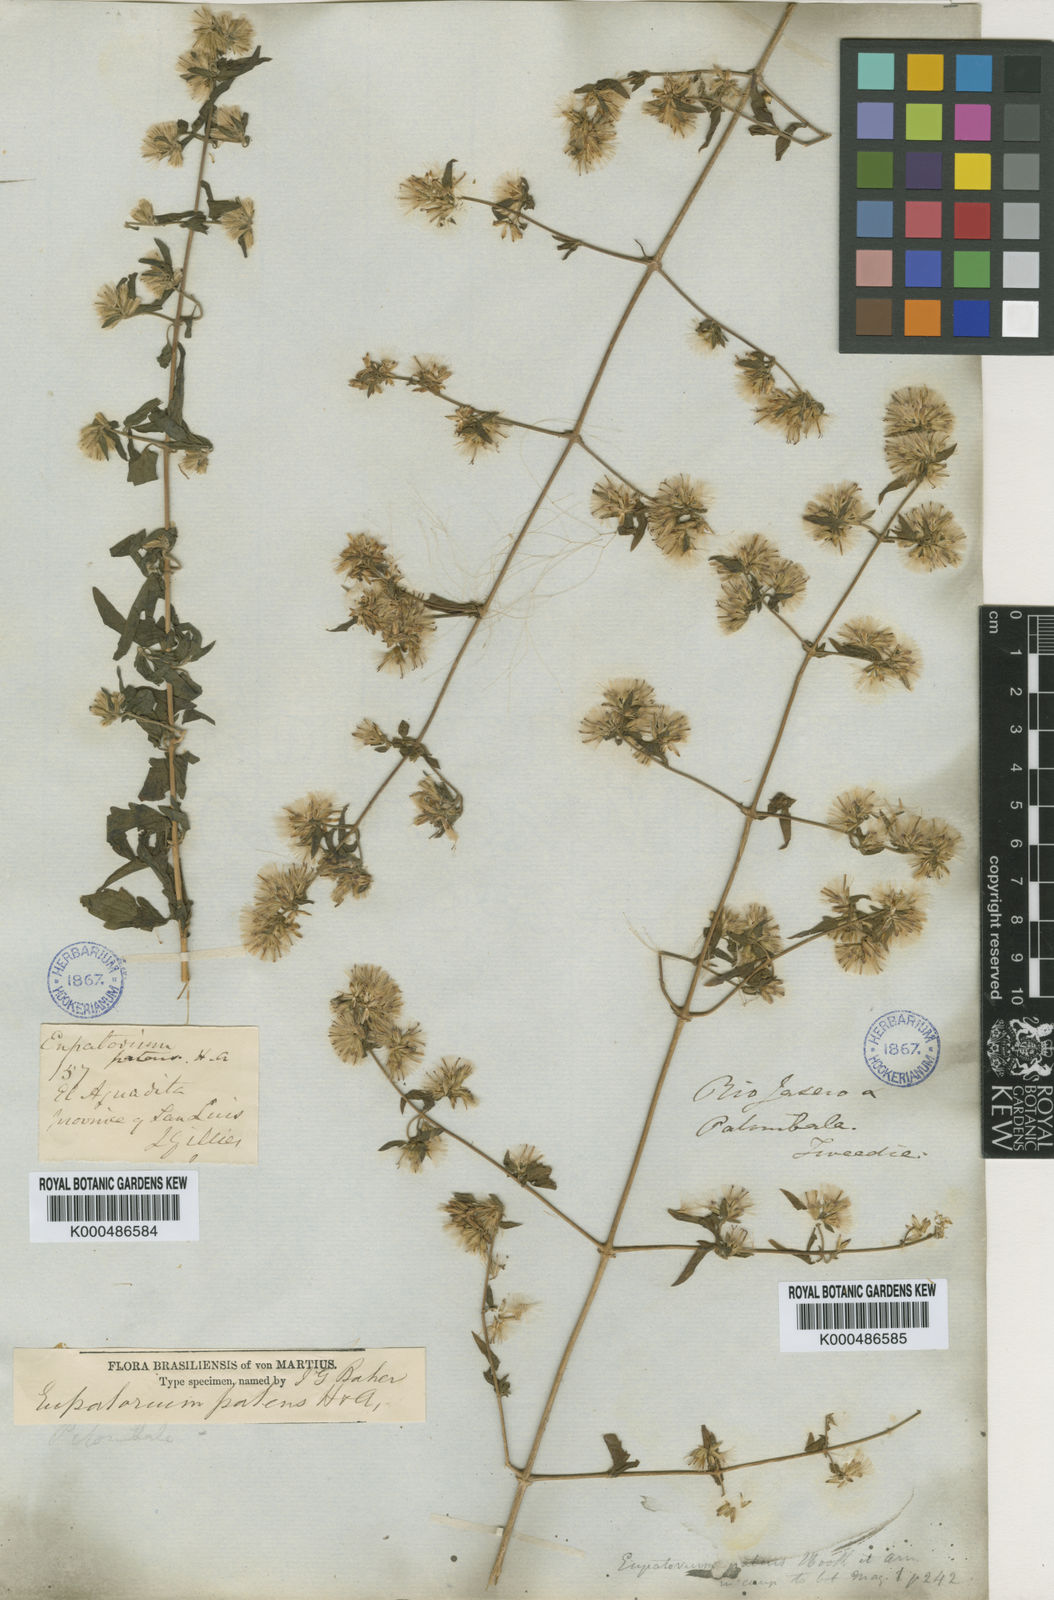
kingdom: Plantae
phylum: Tracheophyta
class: Magnoliopsida
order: Asterales
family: Asteraceae
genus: Austrobrickellia
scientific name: Austrobrickellia patens
